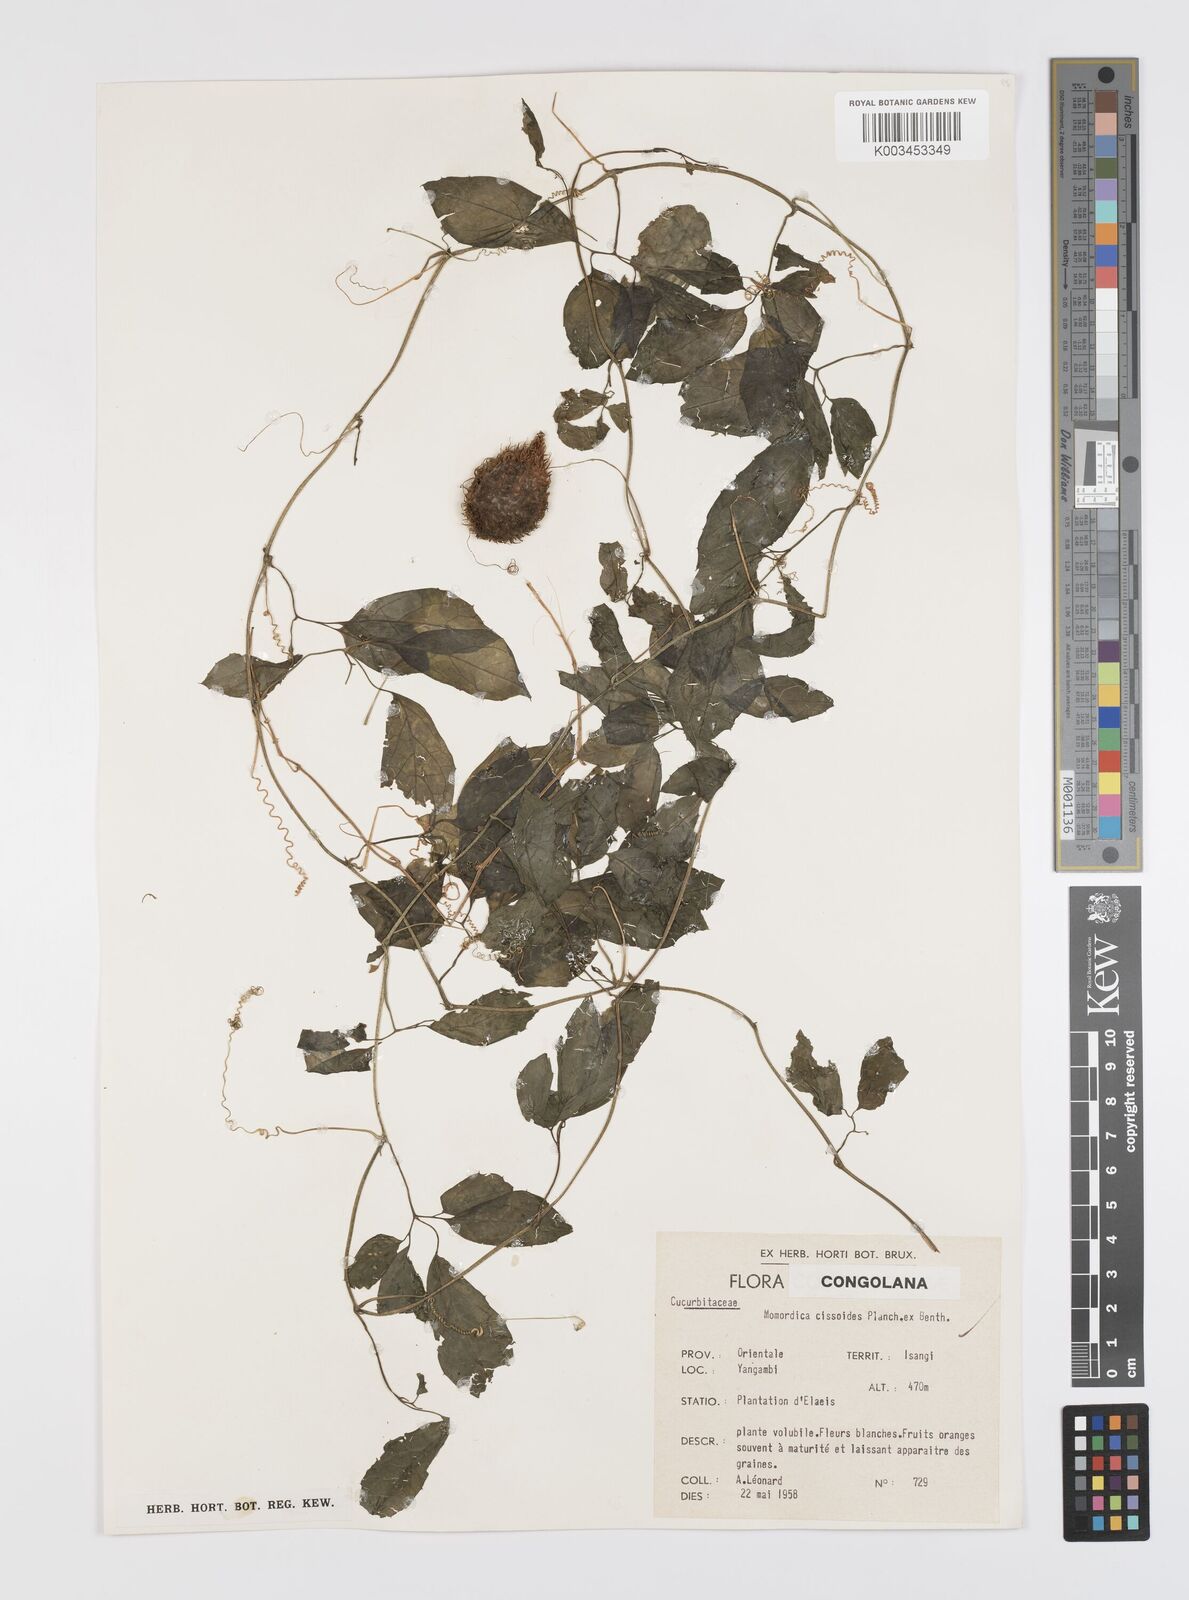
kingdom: Plantae
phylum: Tracheophyta
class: Magnoliopsida
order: Cucurbitales
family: Cucurbitaceae
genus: Momordica
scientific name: Momordica cissoides
